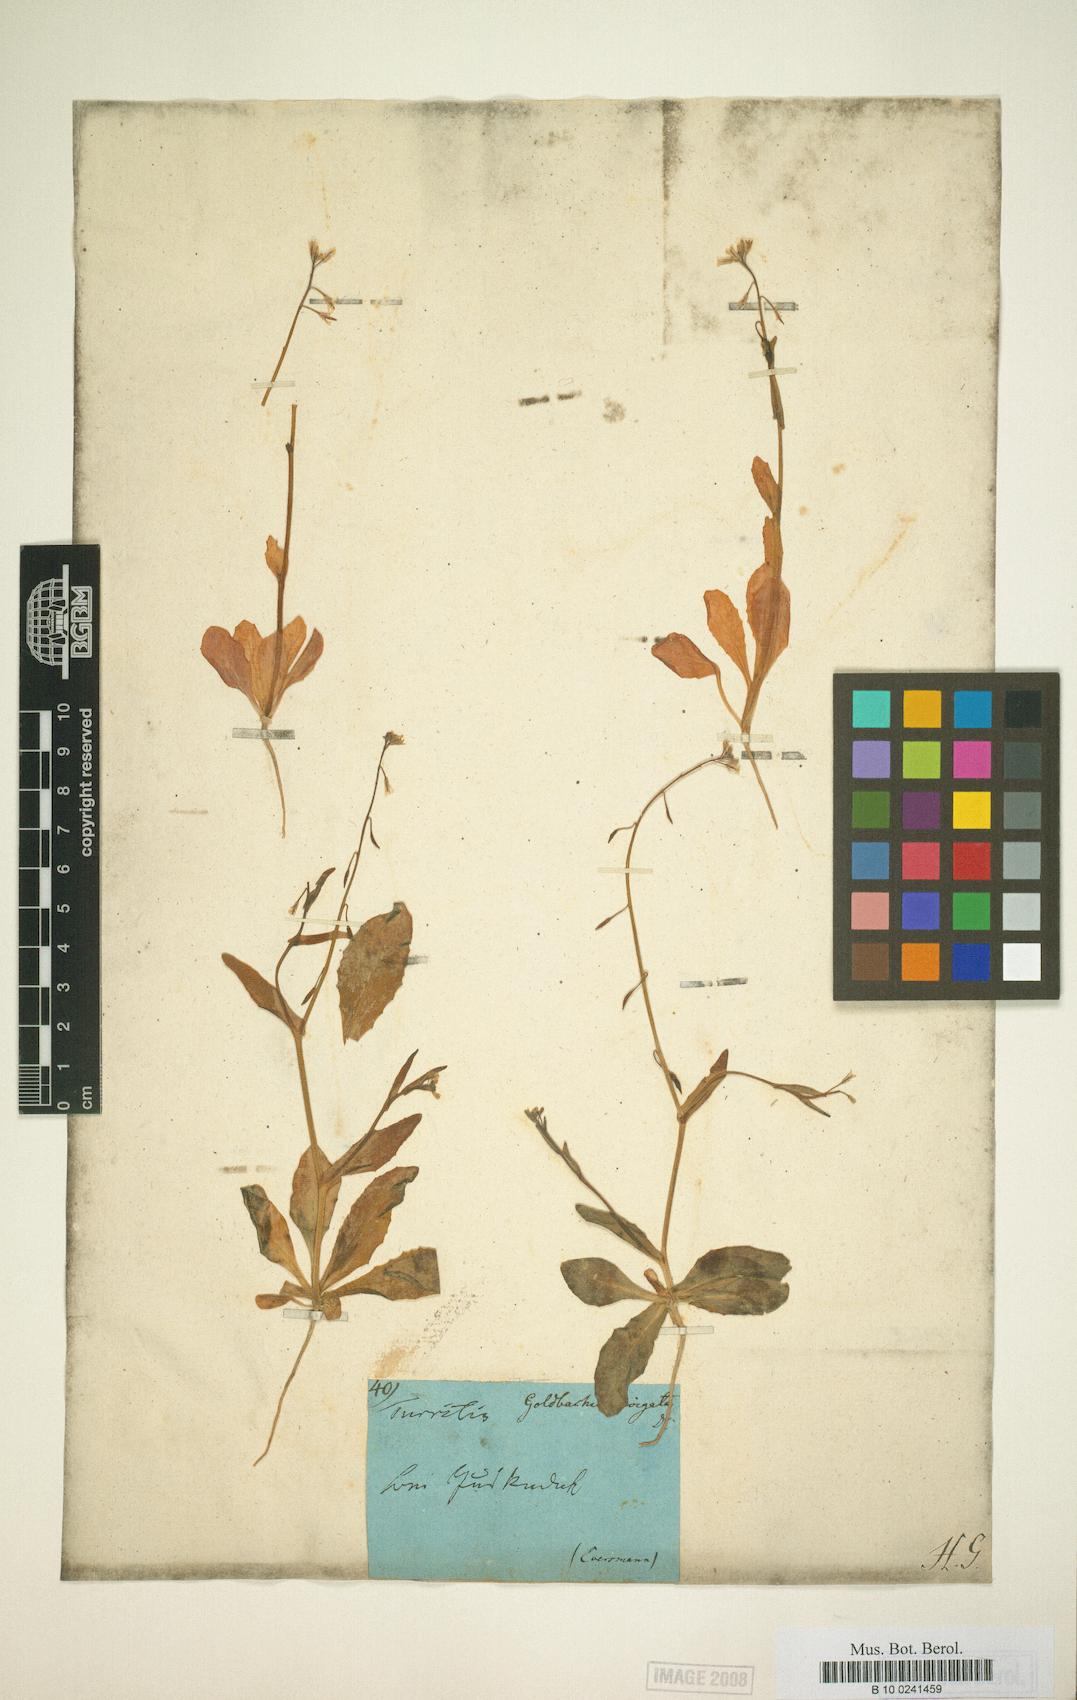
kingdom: Plantae
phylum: Tracheophyta
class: Magnoliopsida
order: Brassicales
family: Brassicaceae
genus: Goldbachia
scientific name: Goldbachia laevigata
